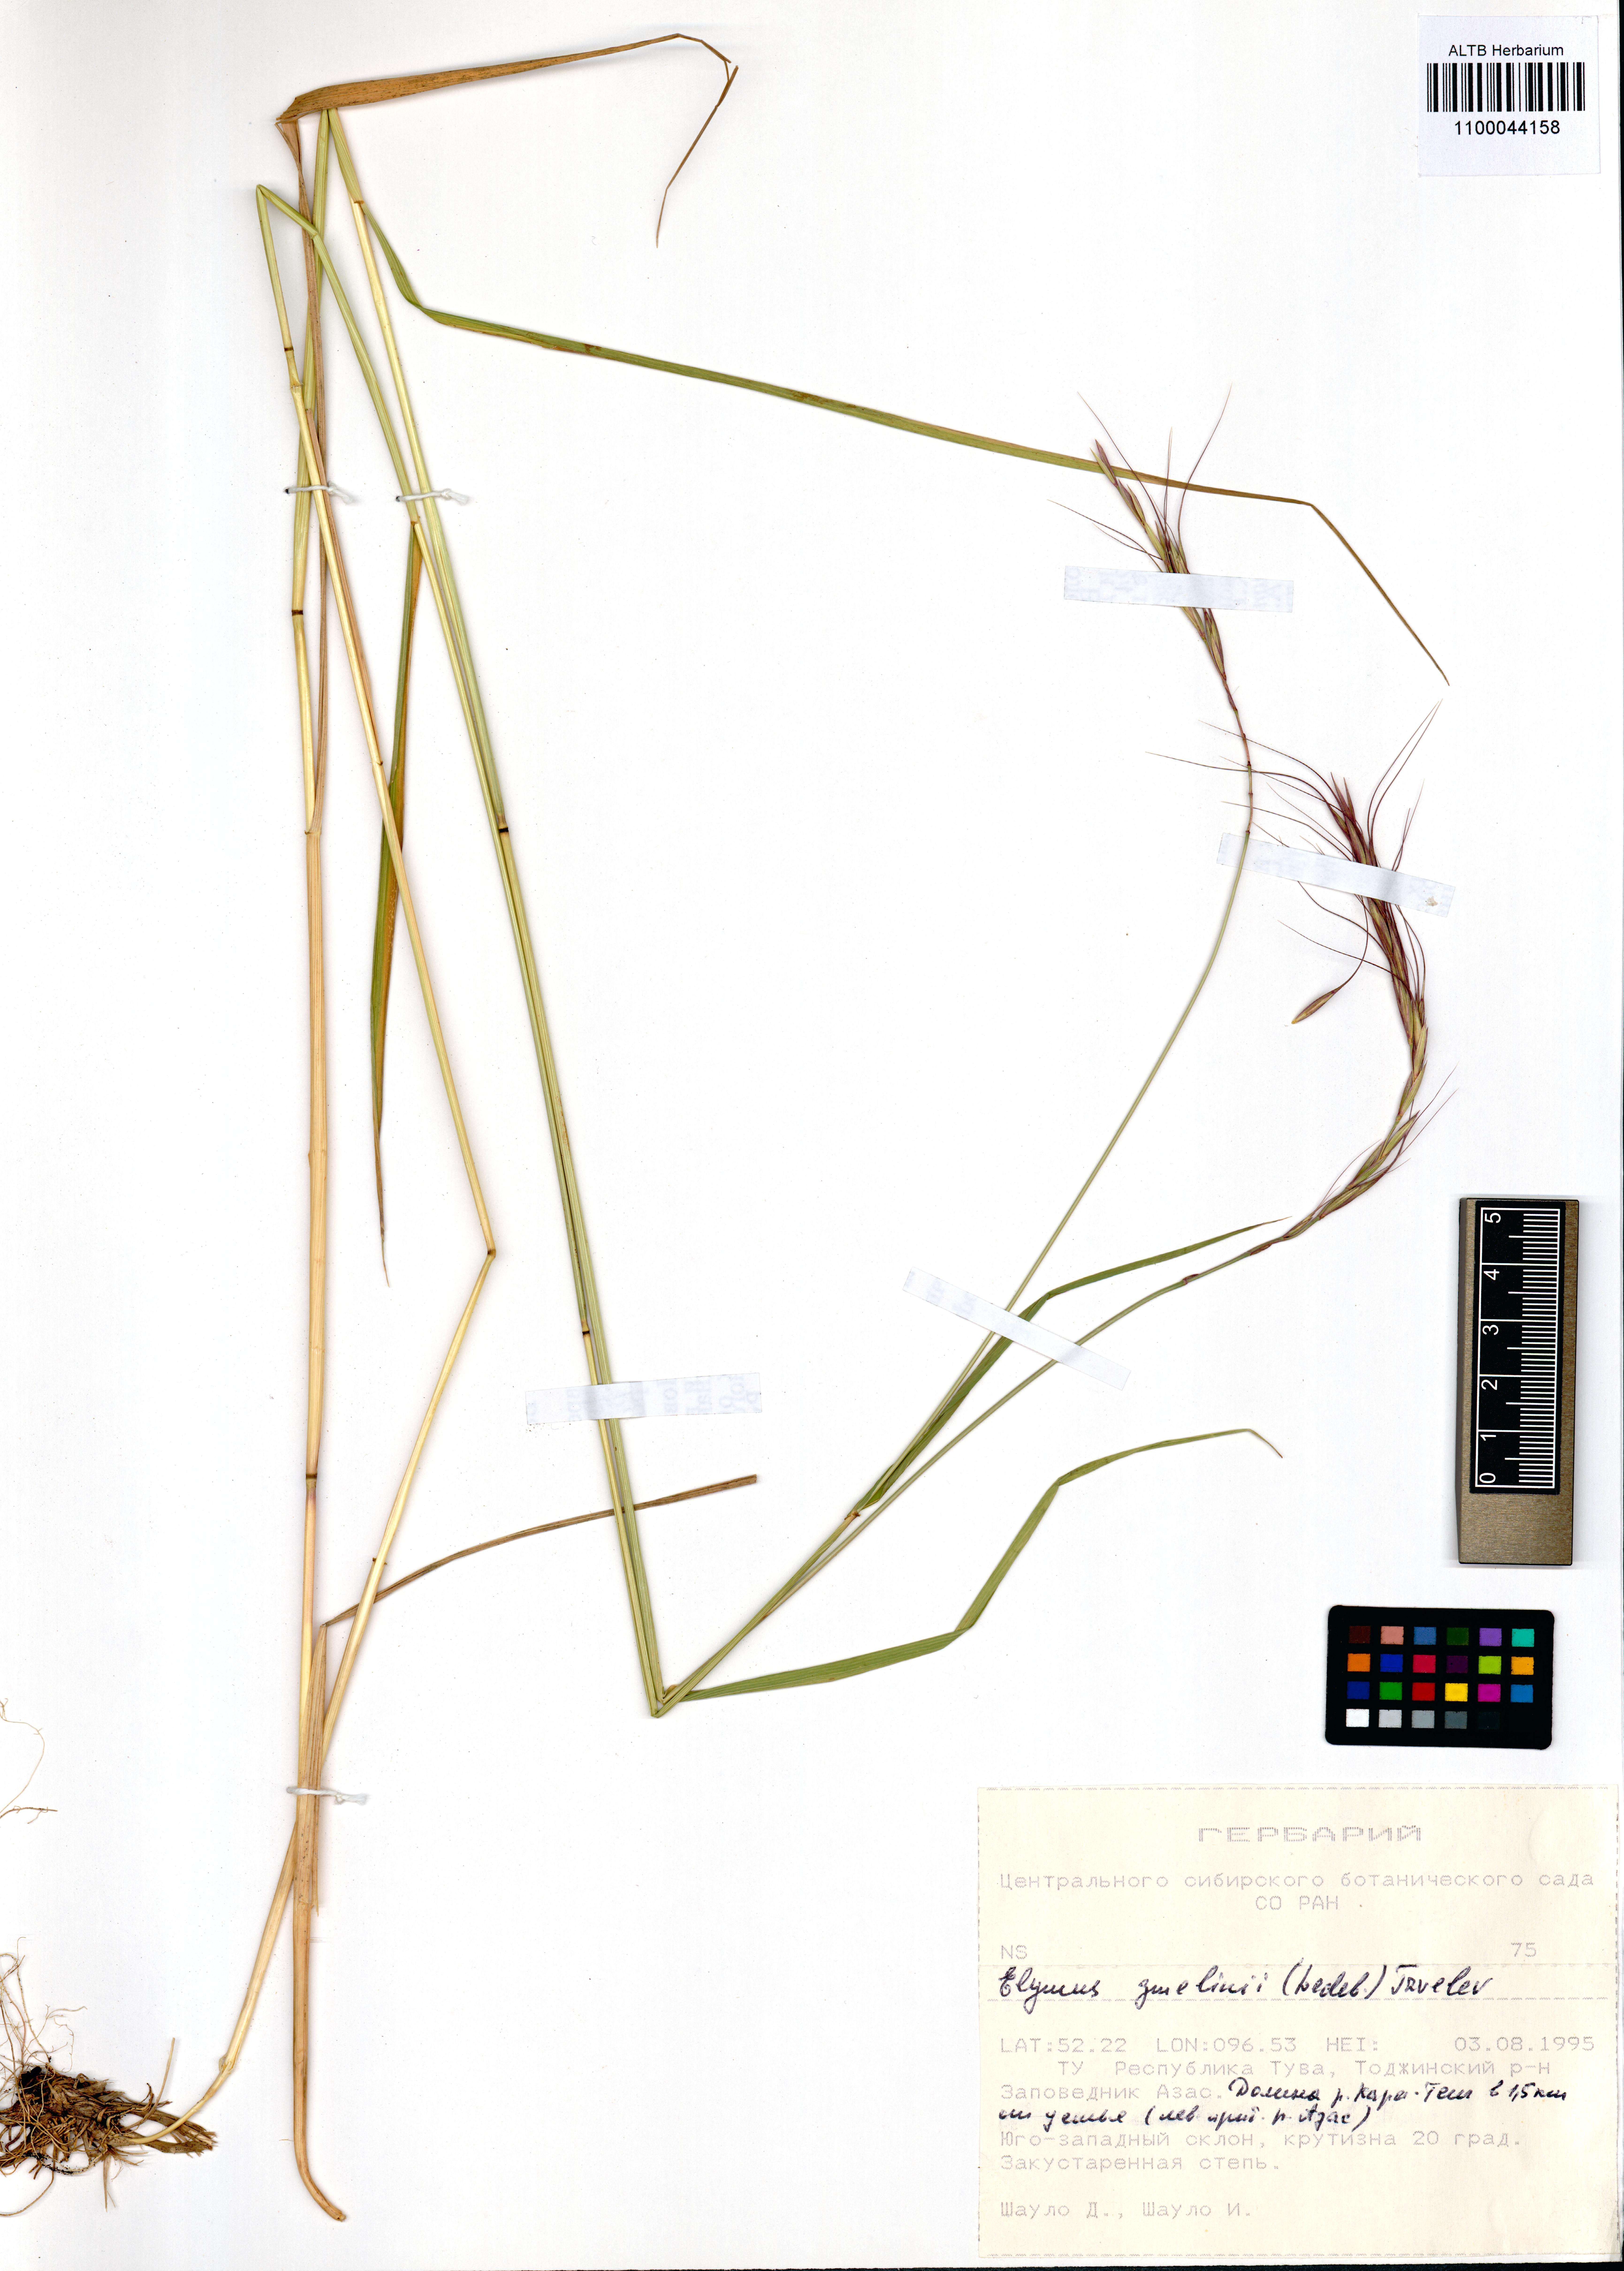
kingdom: Plantae
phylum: Tracheophyta
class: Liliopsida
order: Poales
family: Poaceae
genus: Elymus
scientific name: Elymus gmelinii
